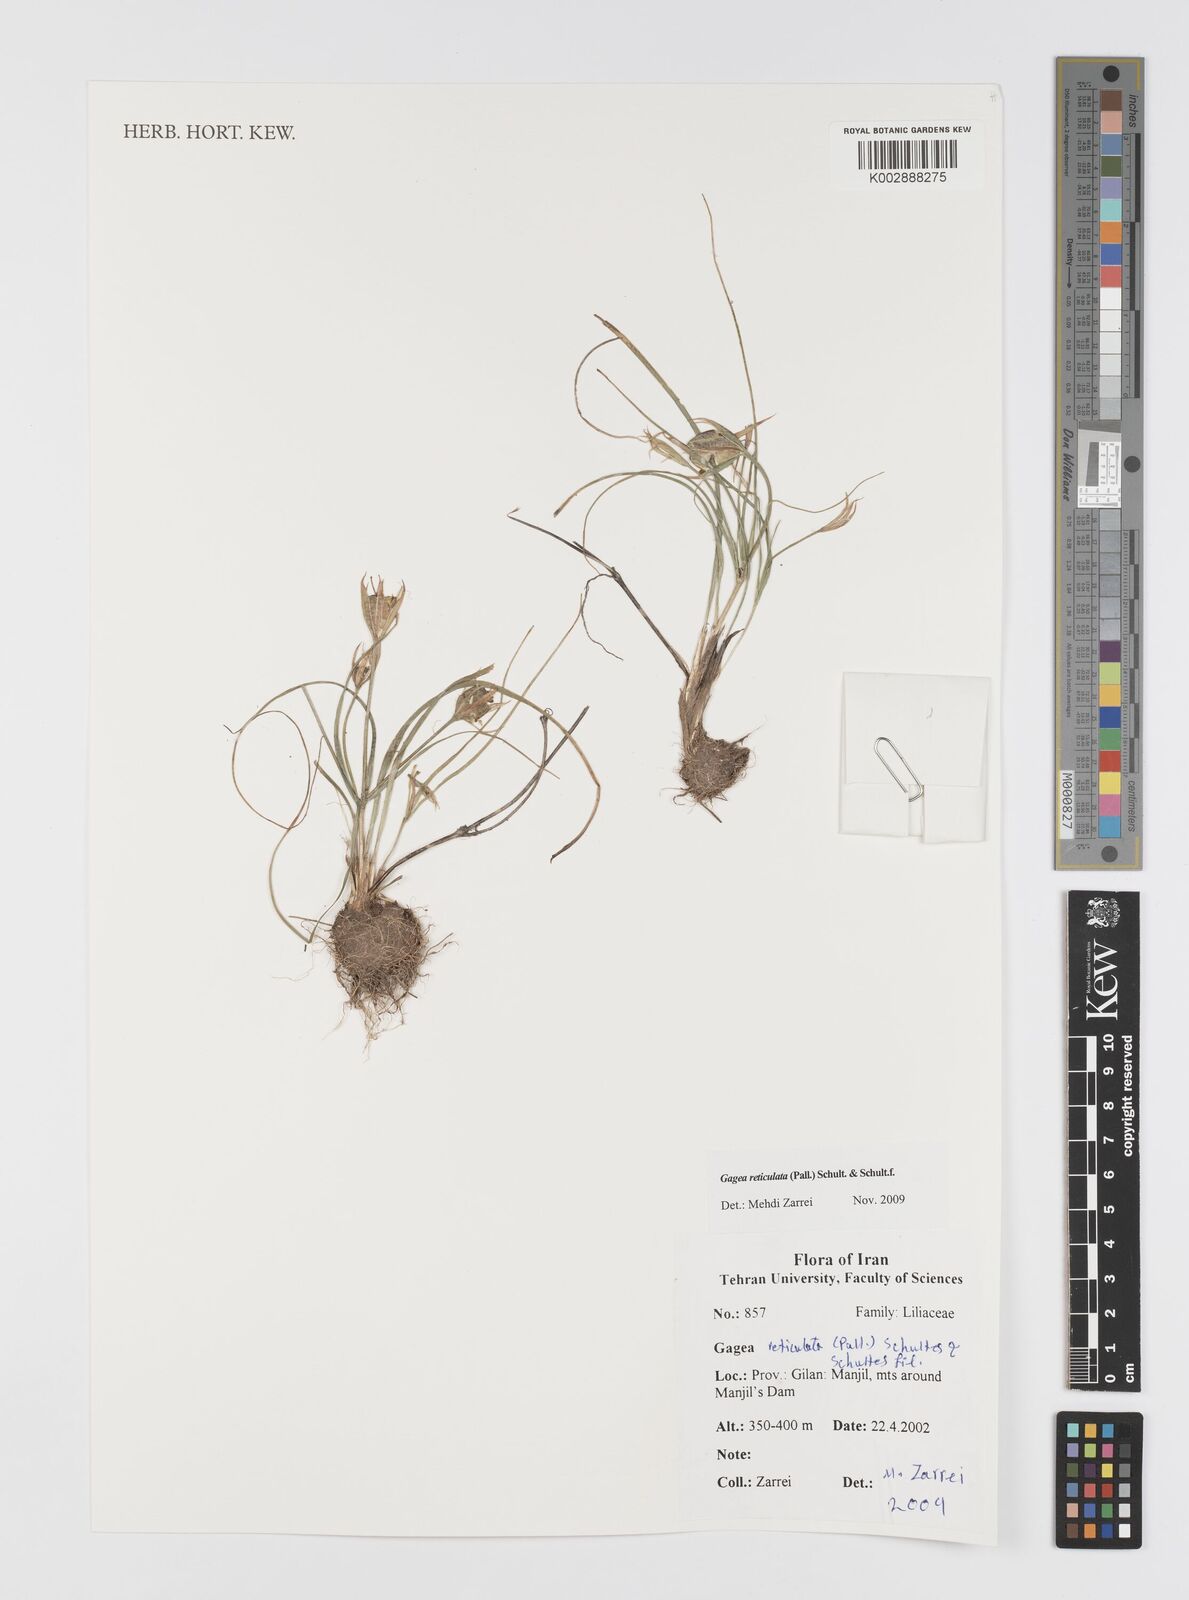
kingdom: Plantae
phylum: Tracheophyta
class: Liliopsida
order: Liliales
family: Liliaceae
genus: Gagea
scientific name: Gagea reticulata
